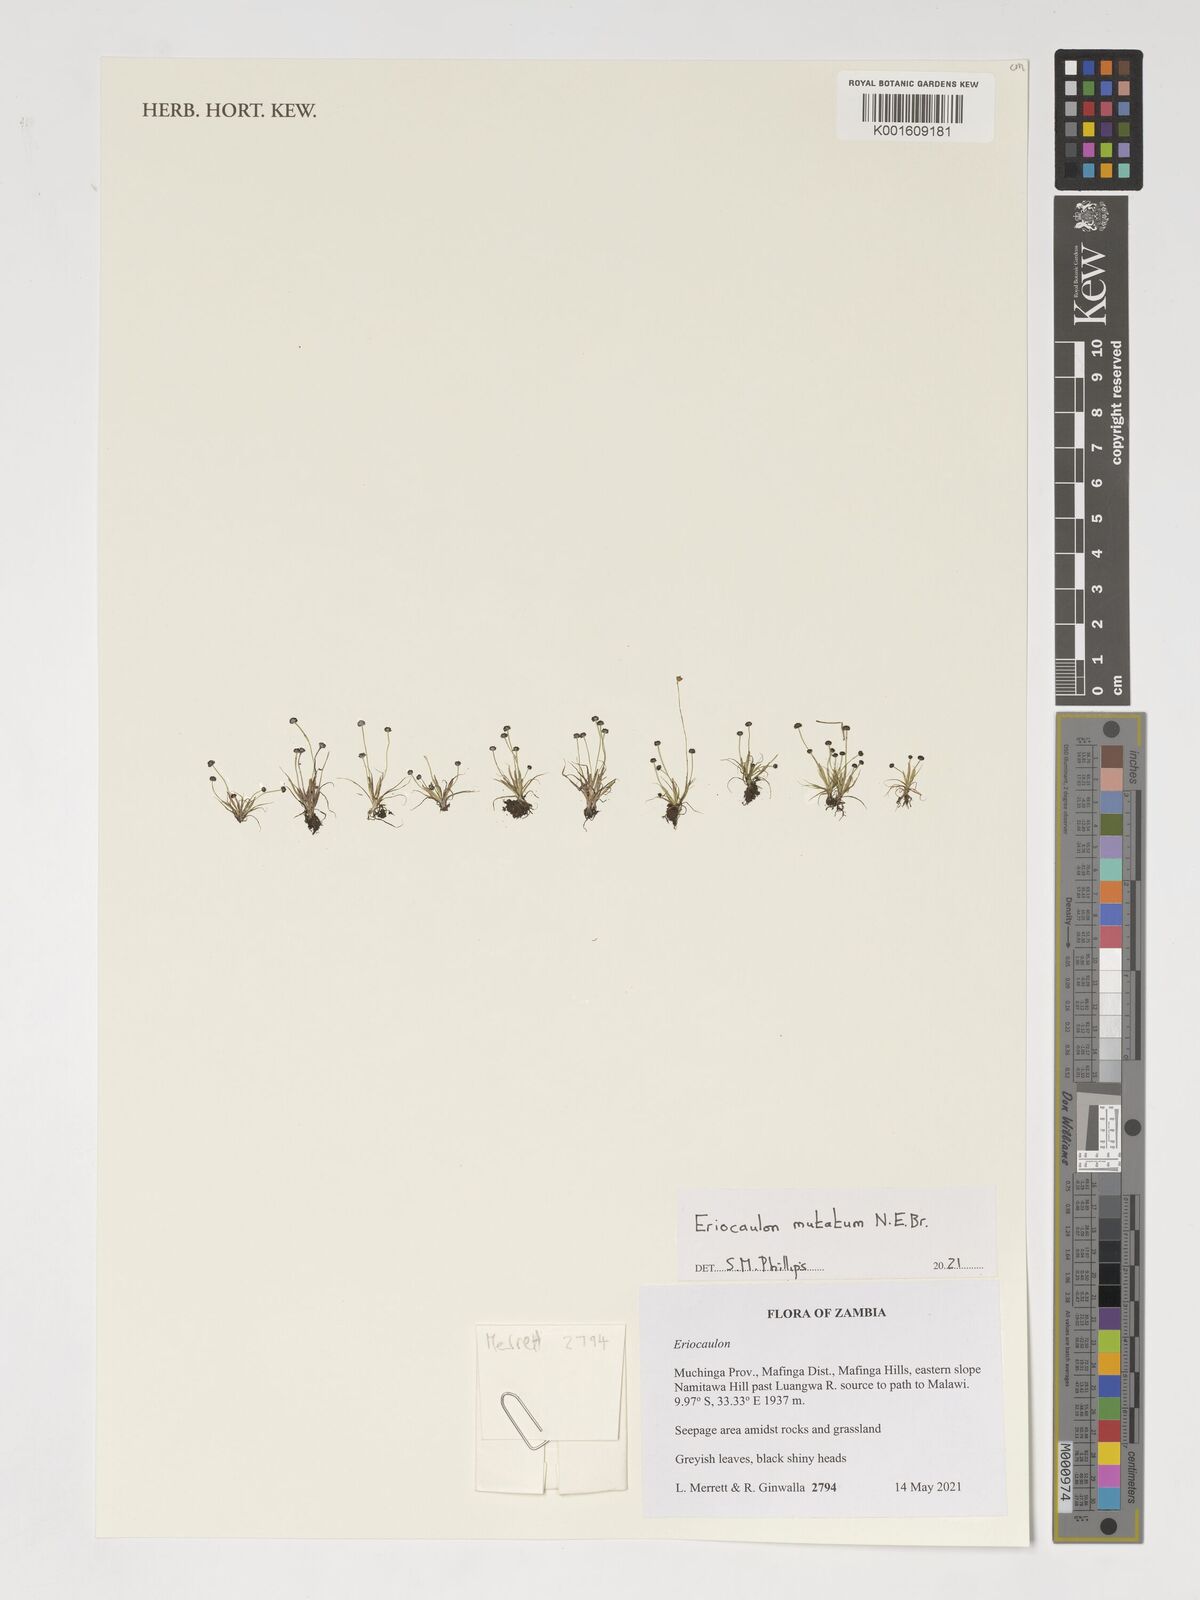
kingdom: Plantae
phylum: Tracheophyta
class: Liliopsida
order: Poales
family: Eriocaulaceae
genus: Eriocaulon
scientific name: Eriocaulon mutatum
